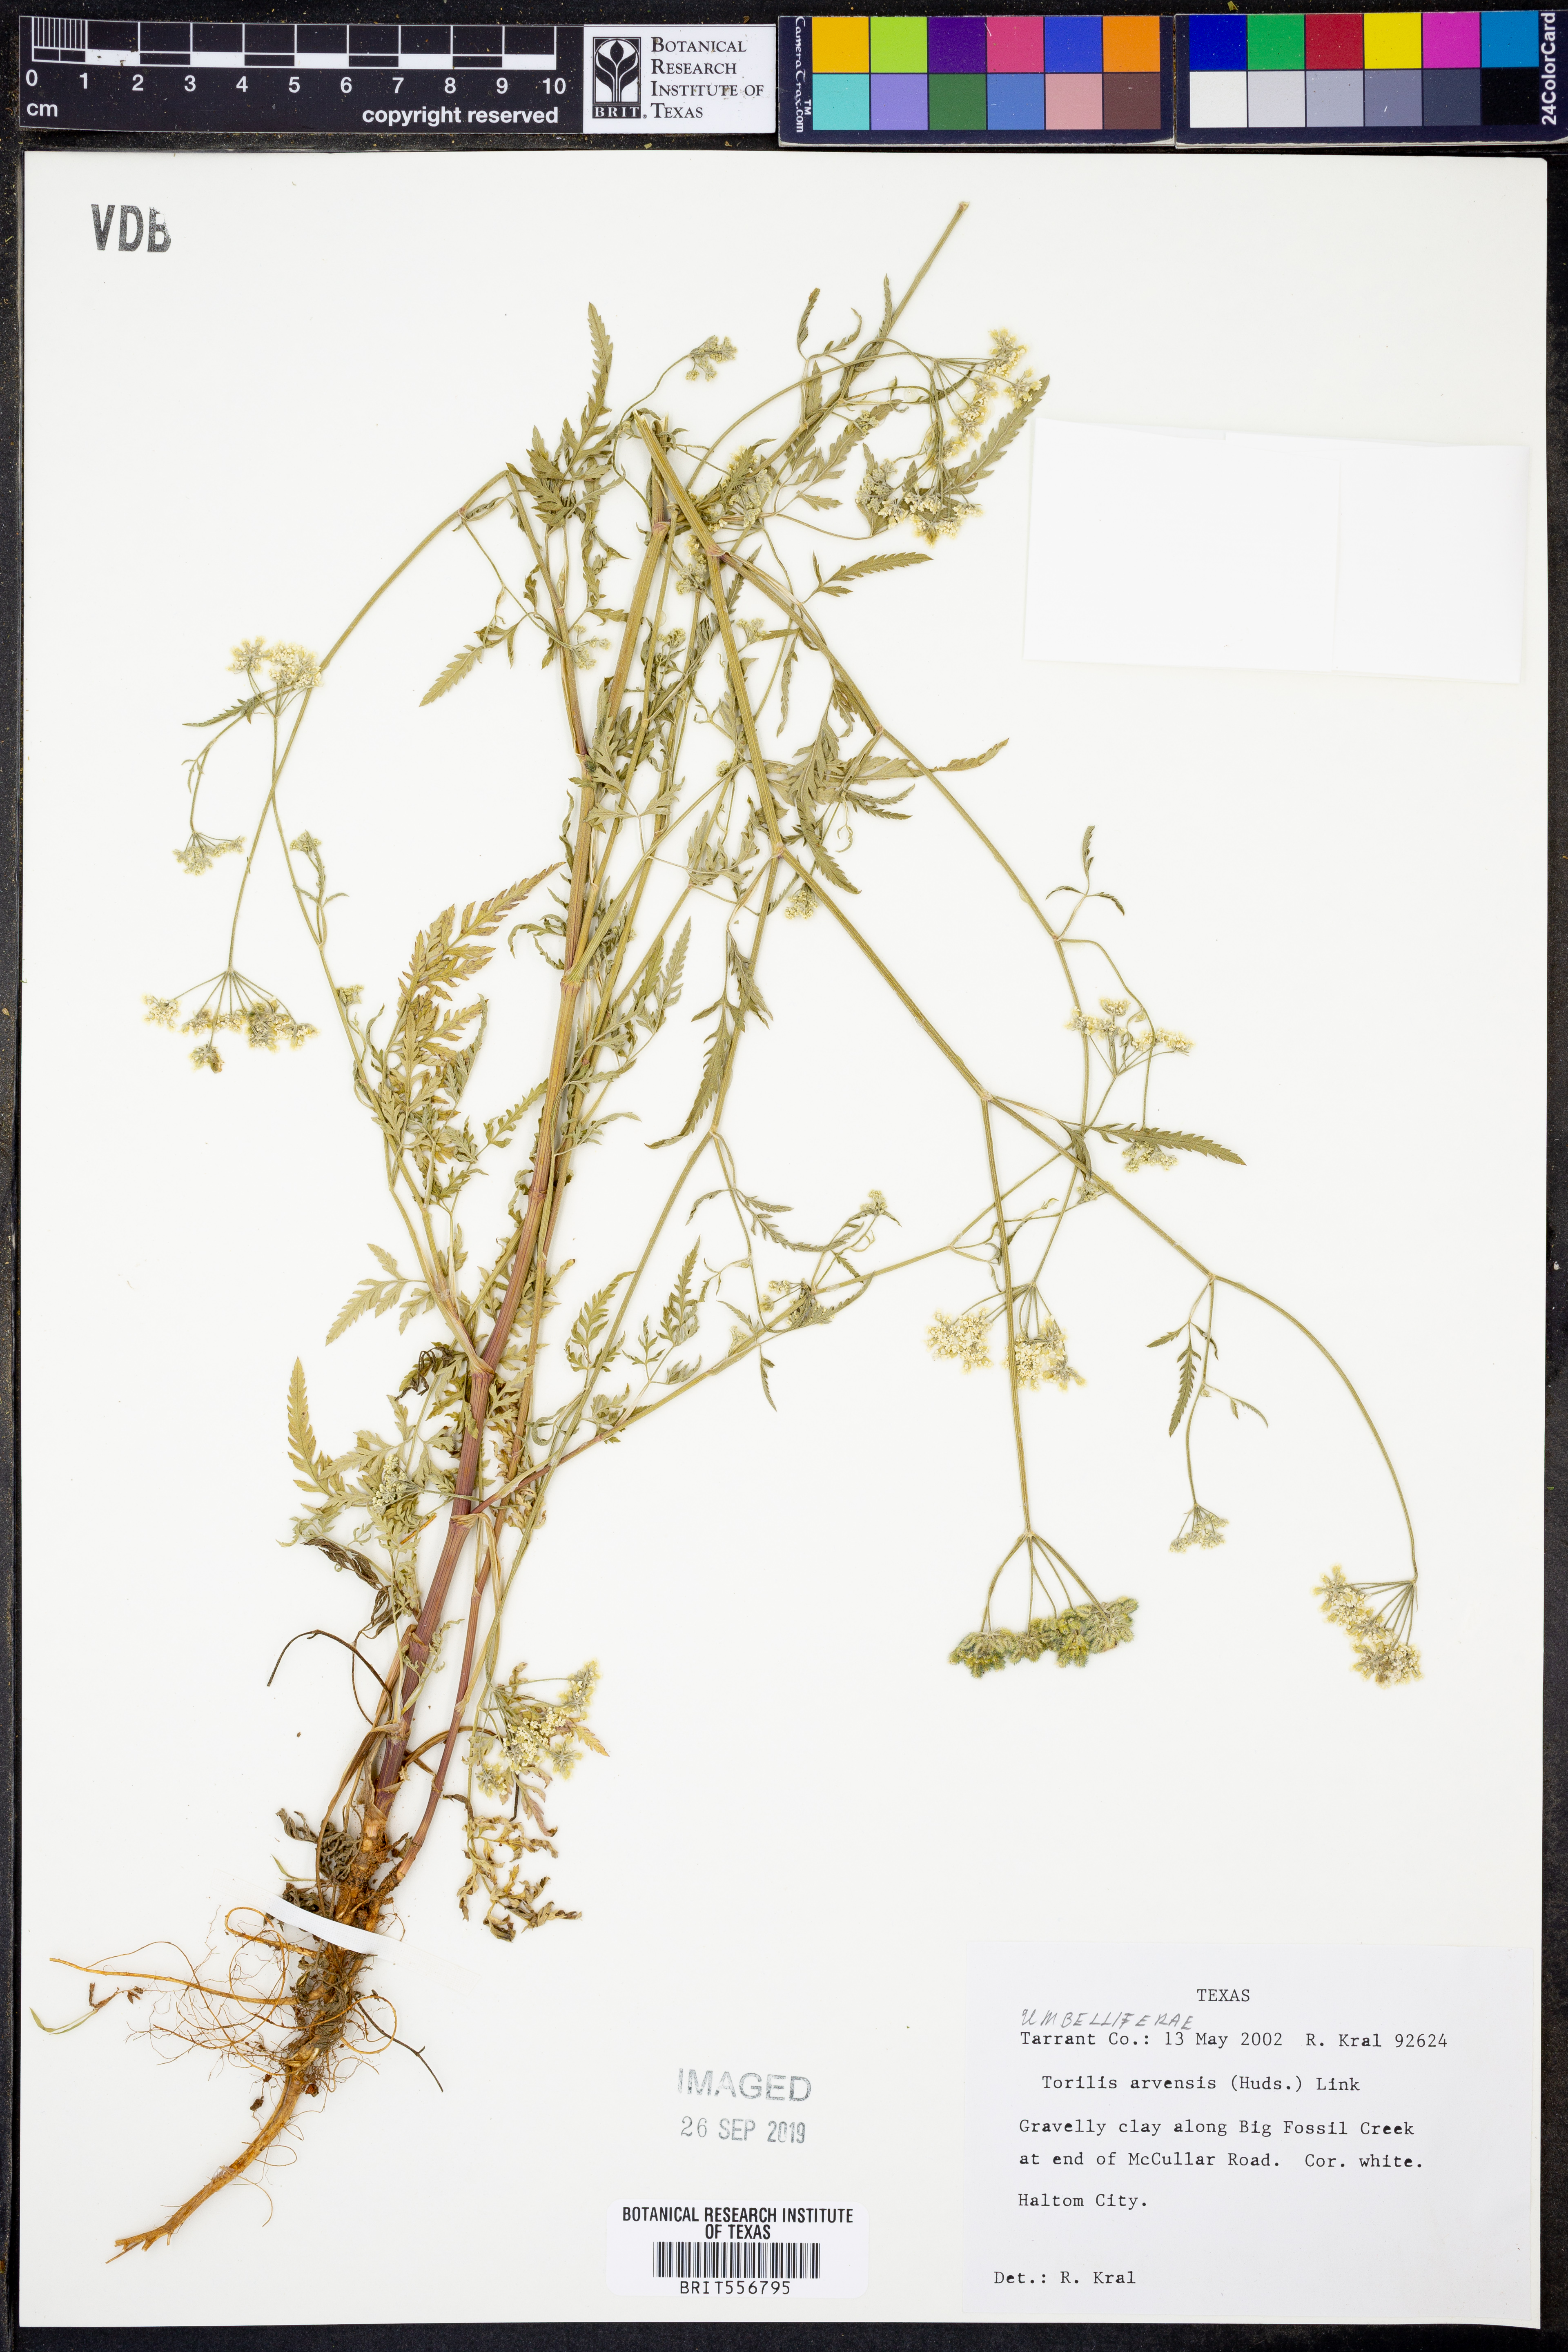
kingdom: Plantae
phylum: Tracheophyta
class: Magnoliopsida
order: Apiales
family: Apiaceae
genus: Torilis
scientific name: Torilis arvensis
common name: Spreading hedge-parsley
